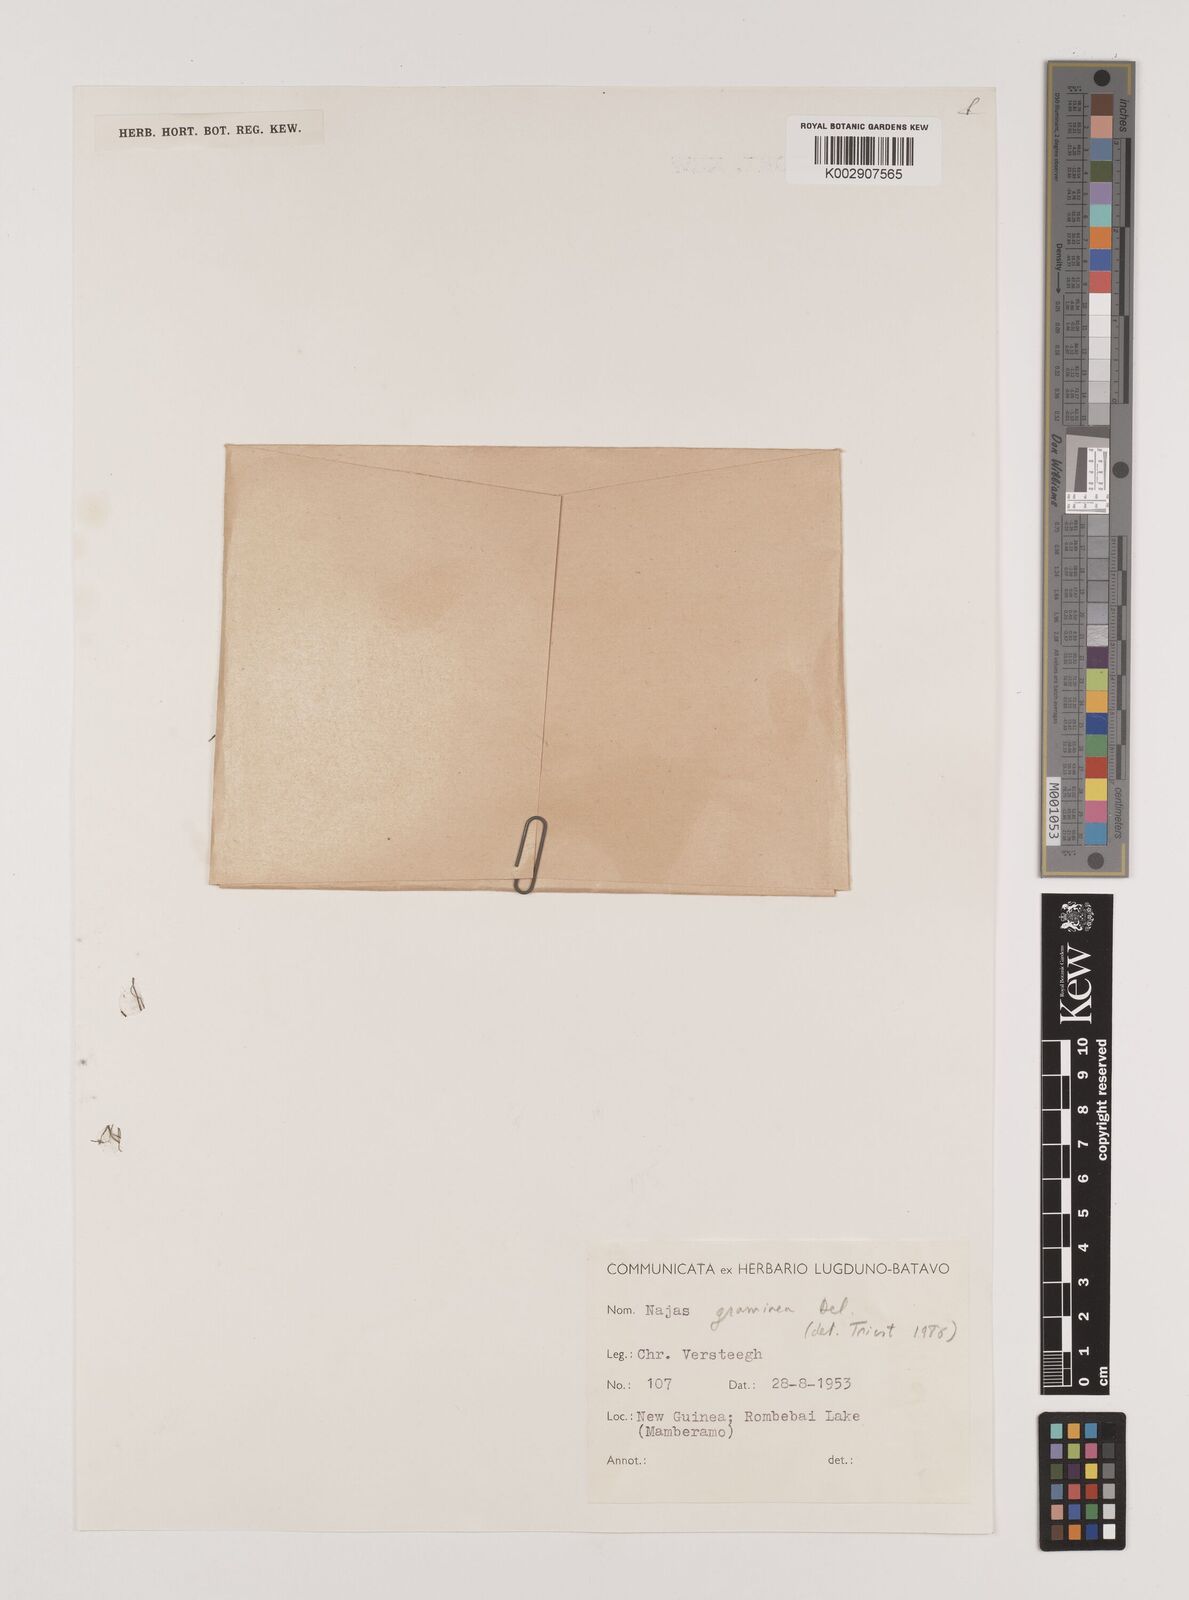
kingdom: Plantae
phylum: Tracheophyta
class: Liliopsida
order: Alismatales
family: Hydrocharitaceae
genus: Najas
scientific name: Najas graminea
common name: Ricefield waternymph
